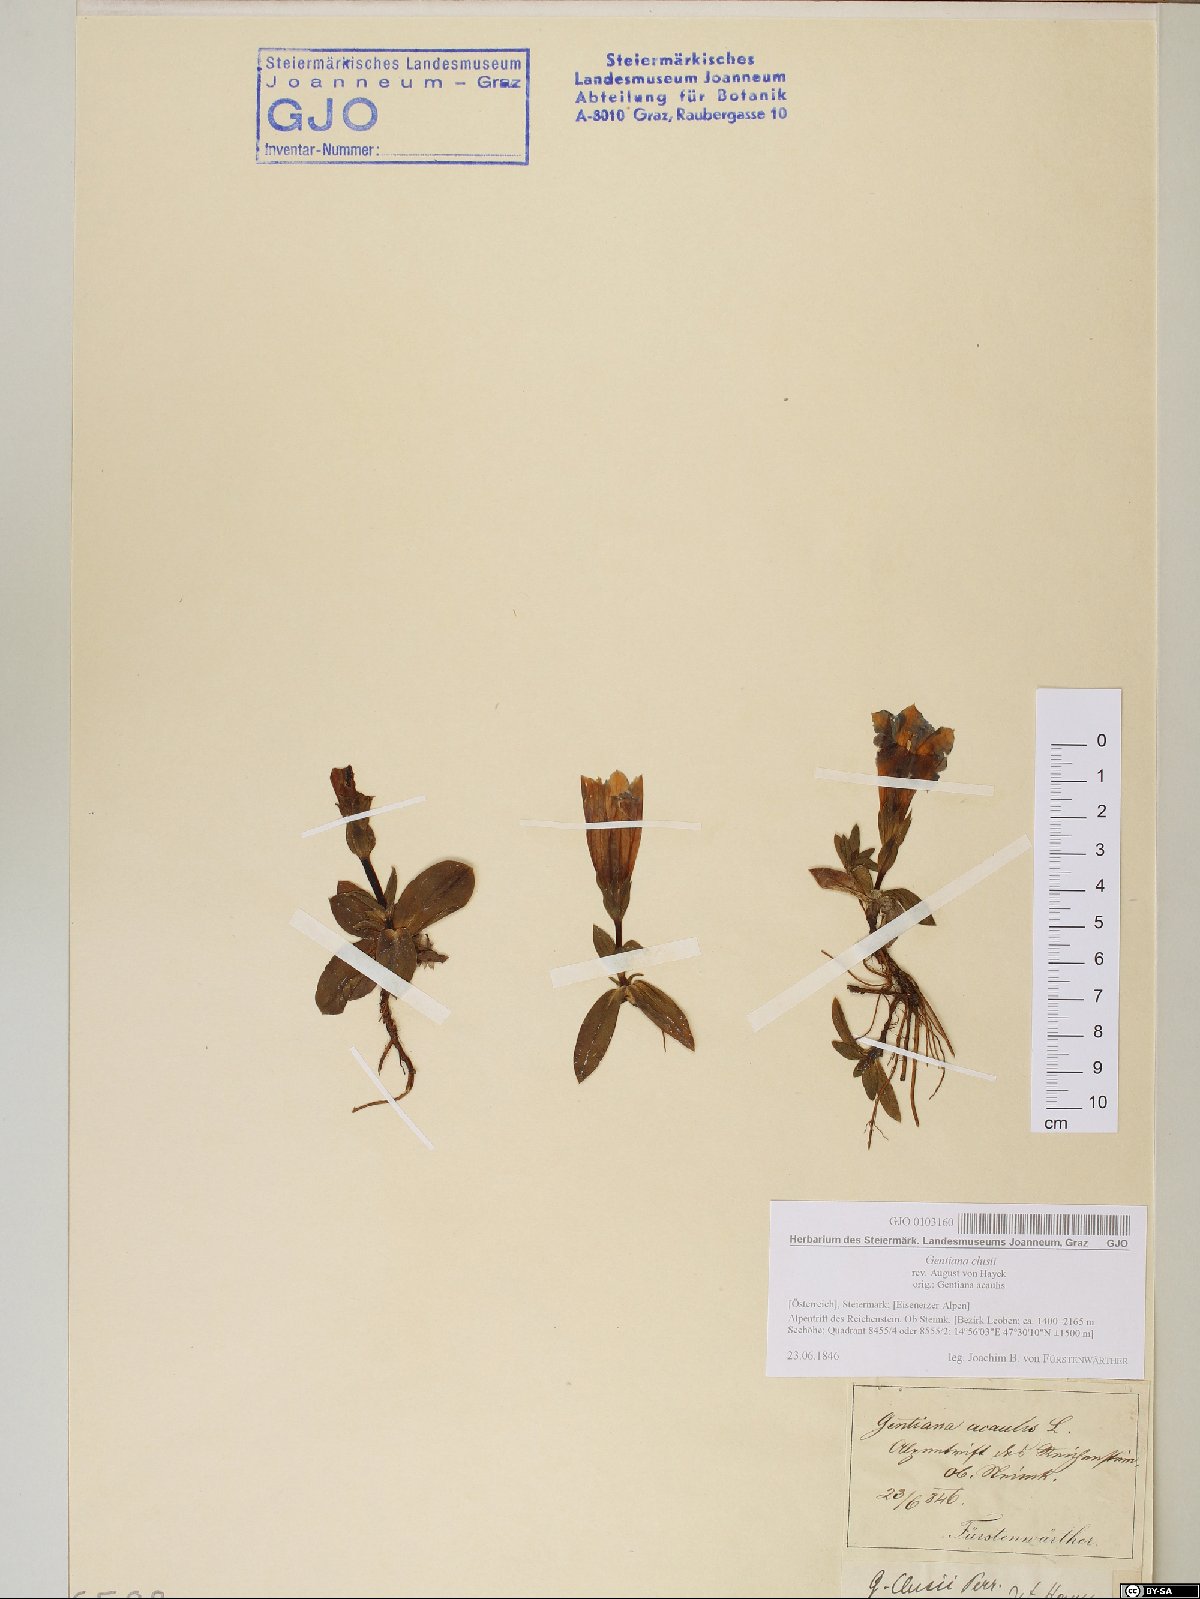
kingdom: Plantae
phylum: Tracheophyta
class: Magnoliopsida
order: Gentianales
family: Gentianaceae
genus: Gentiana
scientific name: Gentiana clusii
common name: Trumpet gentian
